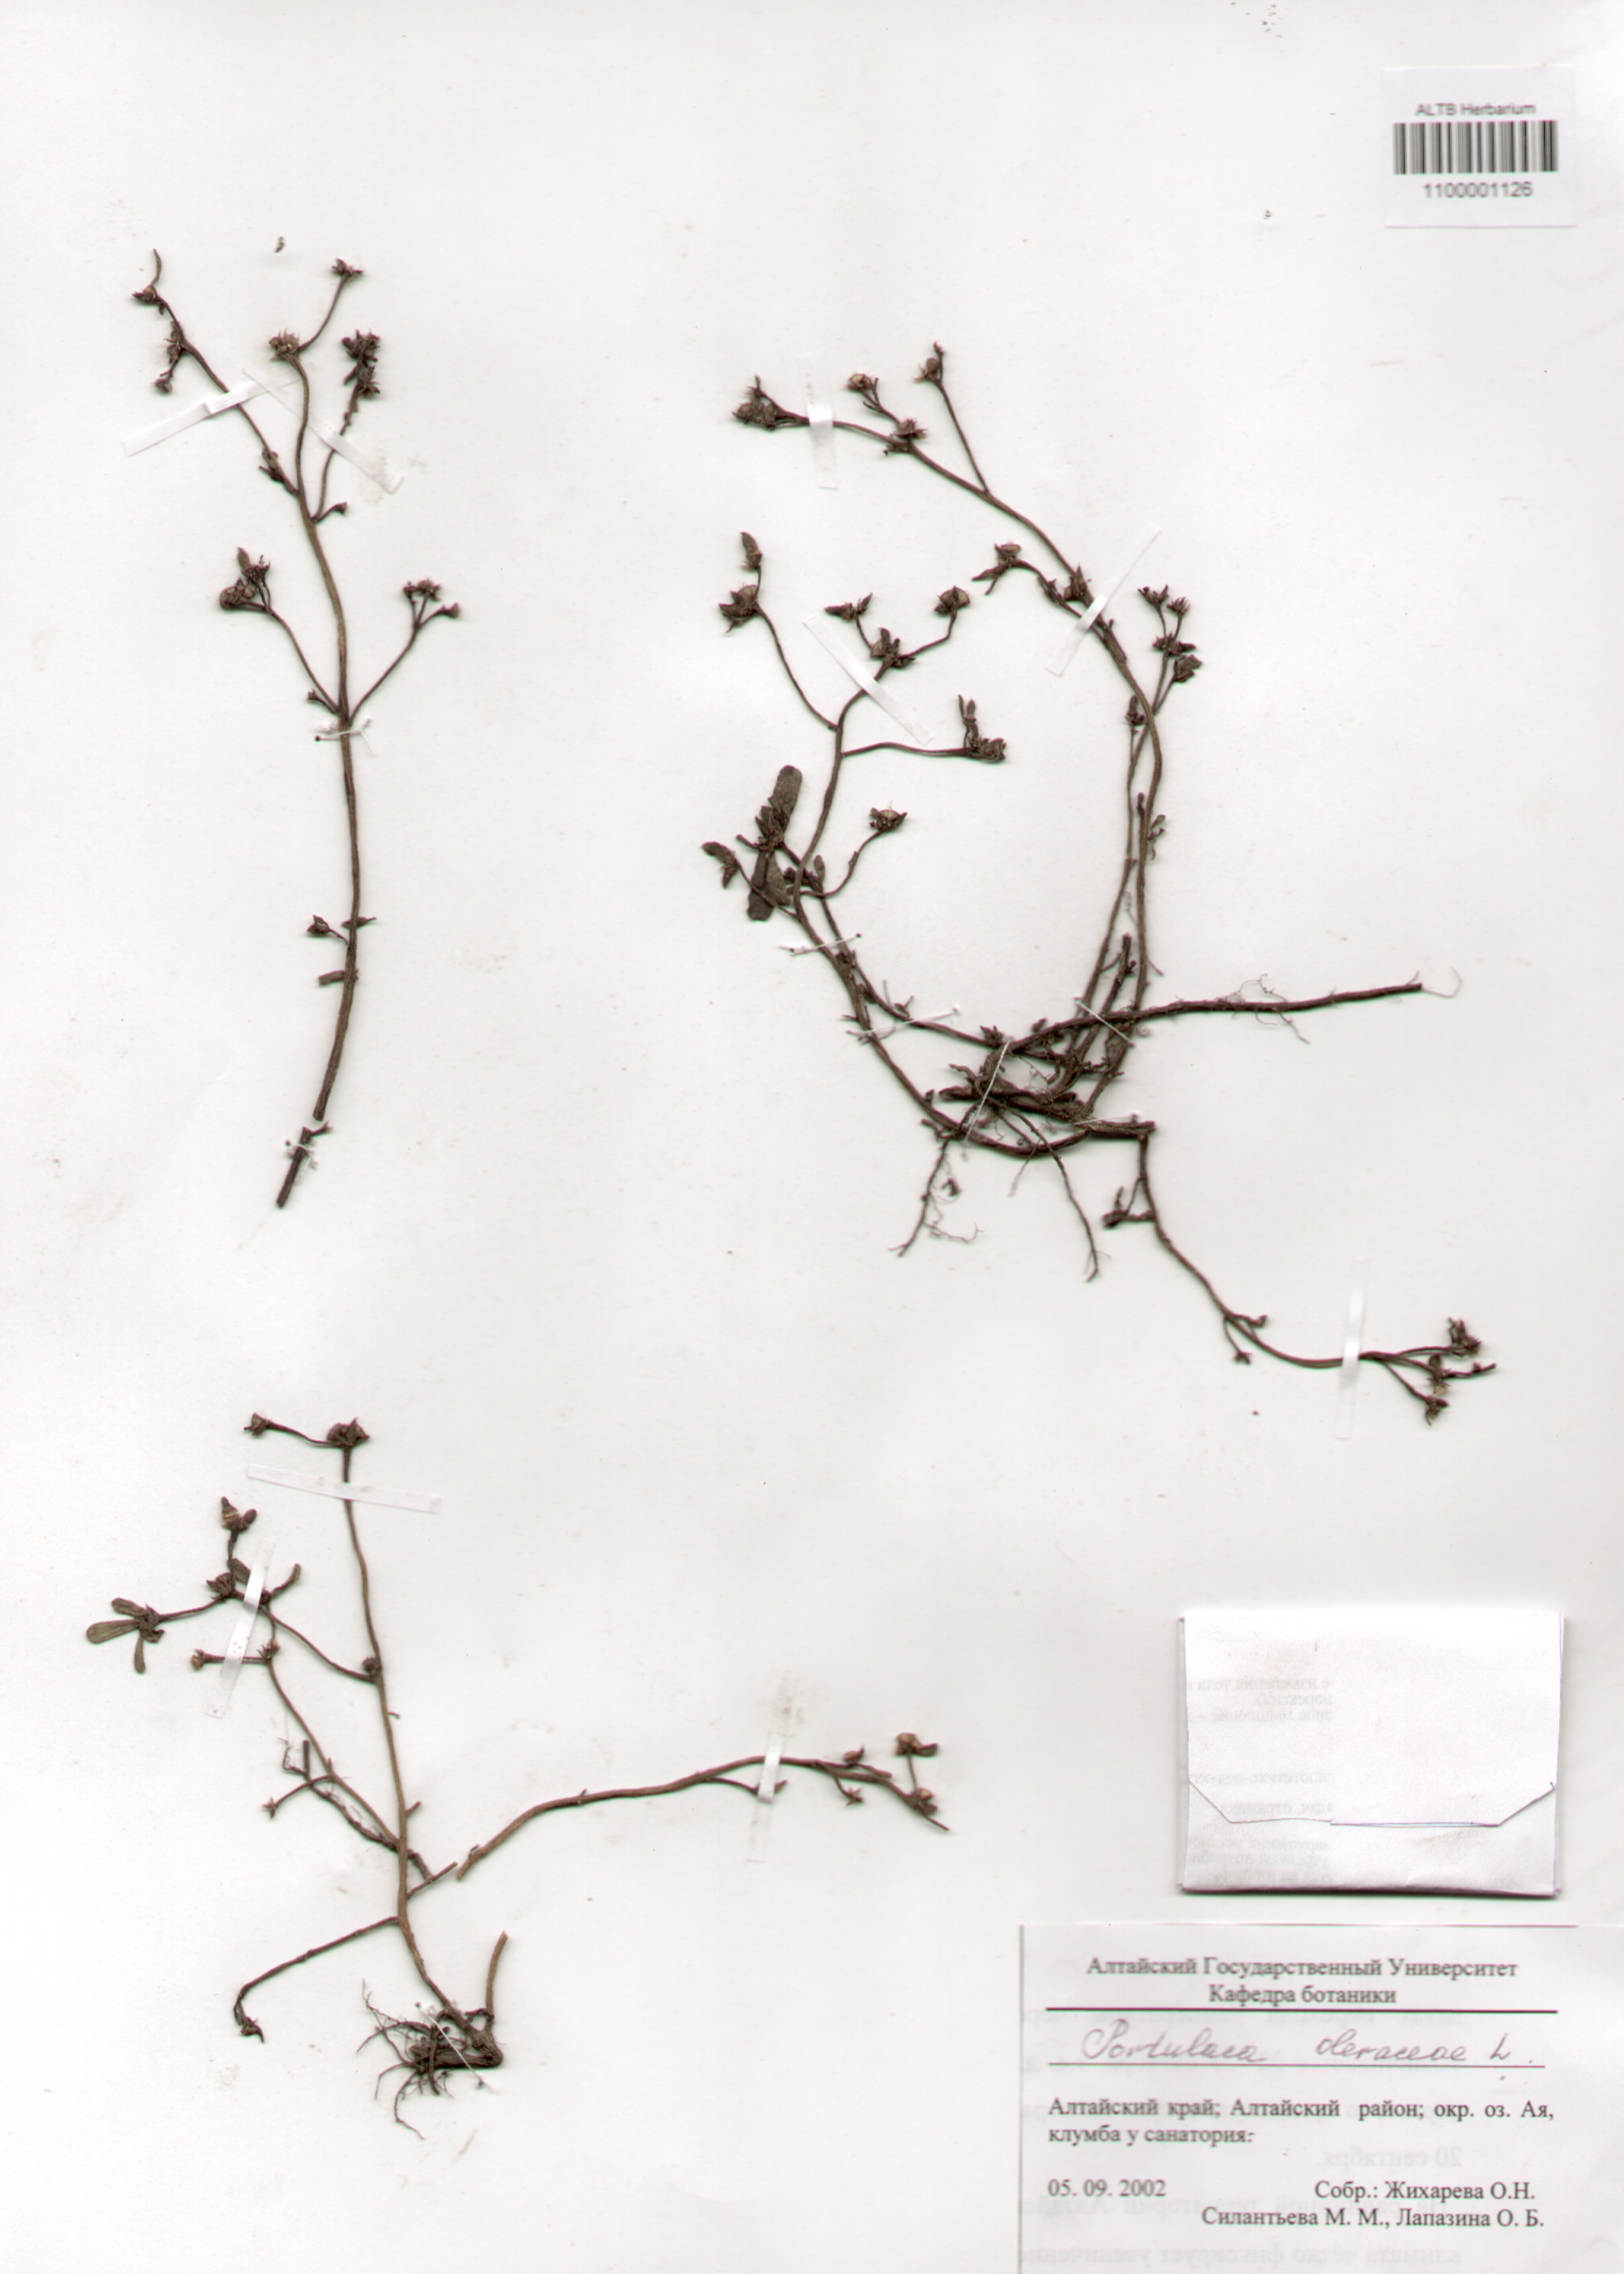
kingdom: Plantae
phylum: Tracheophyta
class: Magnoliopsida
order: Caryophyllales
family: Portulacaceae
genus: Portulaca
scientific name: Portulaca oleracea
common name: Common purslane
